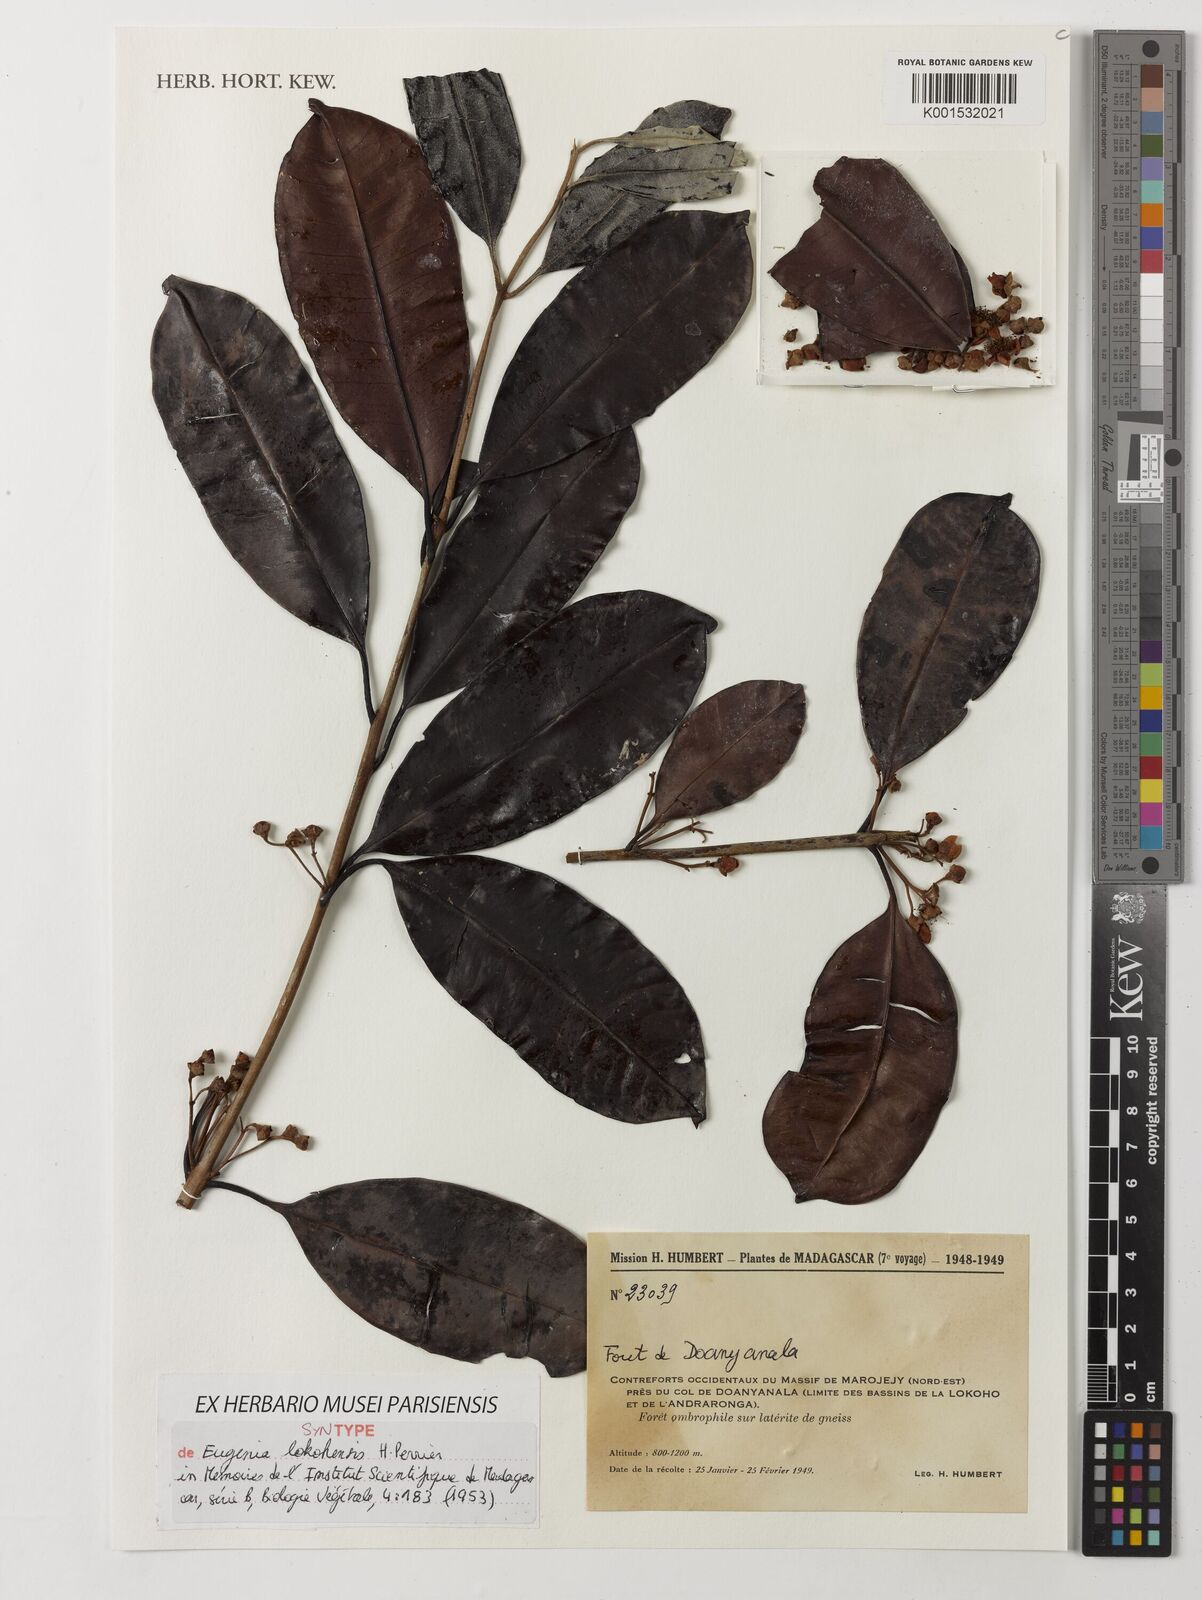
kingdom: Plantae
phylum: Tracheophyta
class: Magnoliopsida
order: Myrtales
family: Myrtaceae
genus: Eugenia
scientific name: Eugenia lokohensis
